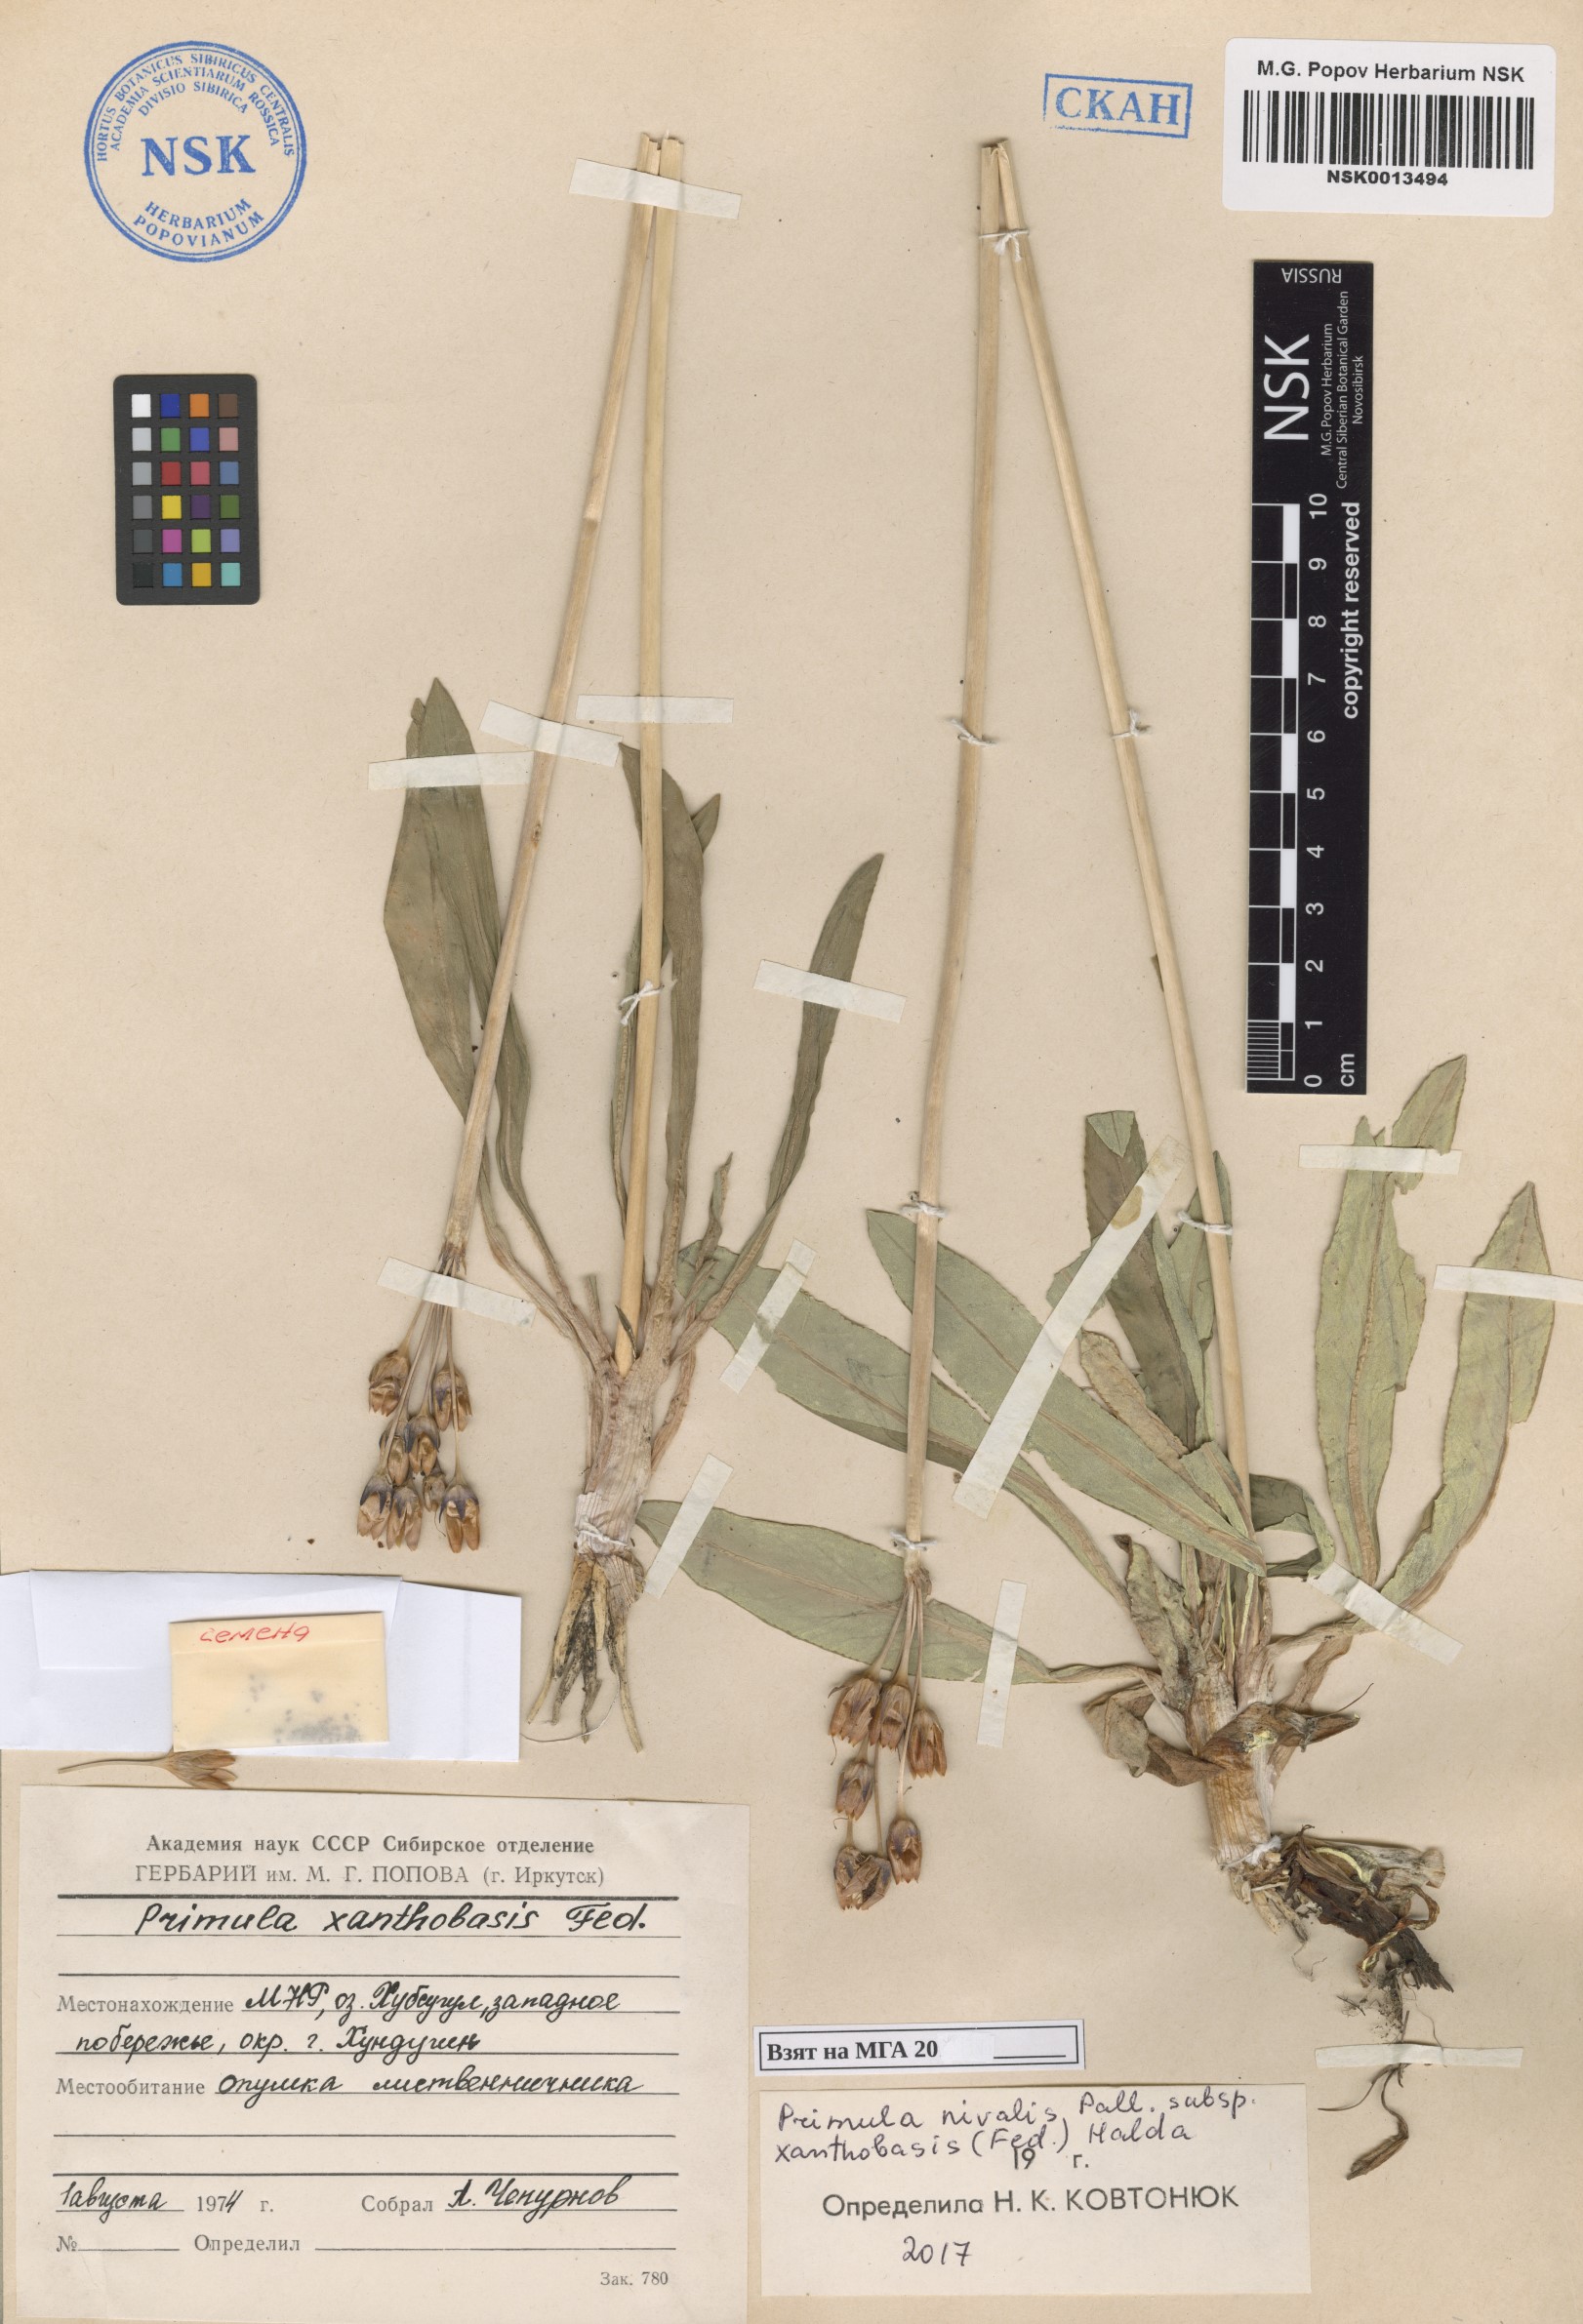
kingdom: Plantae
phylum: Tracheophyta
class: Magnoliopsida
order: Ericales
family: Primulaceae
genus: Primula
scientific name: Primula nivalis
